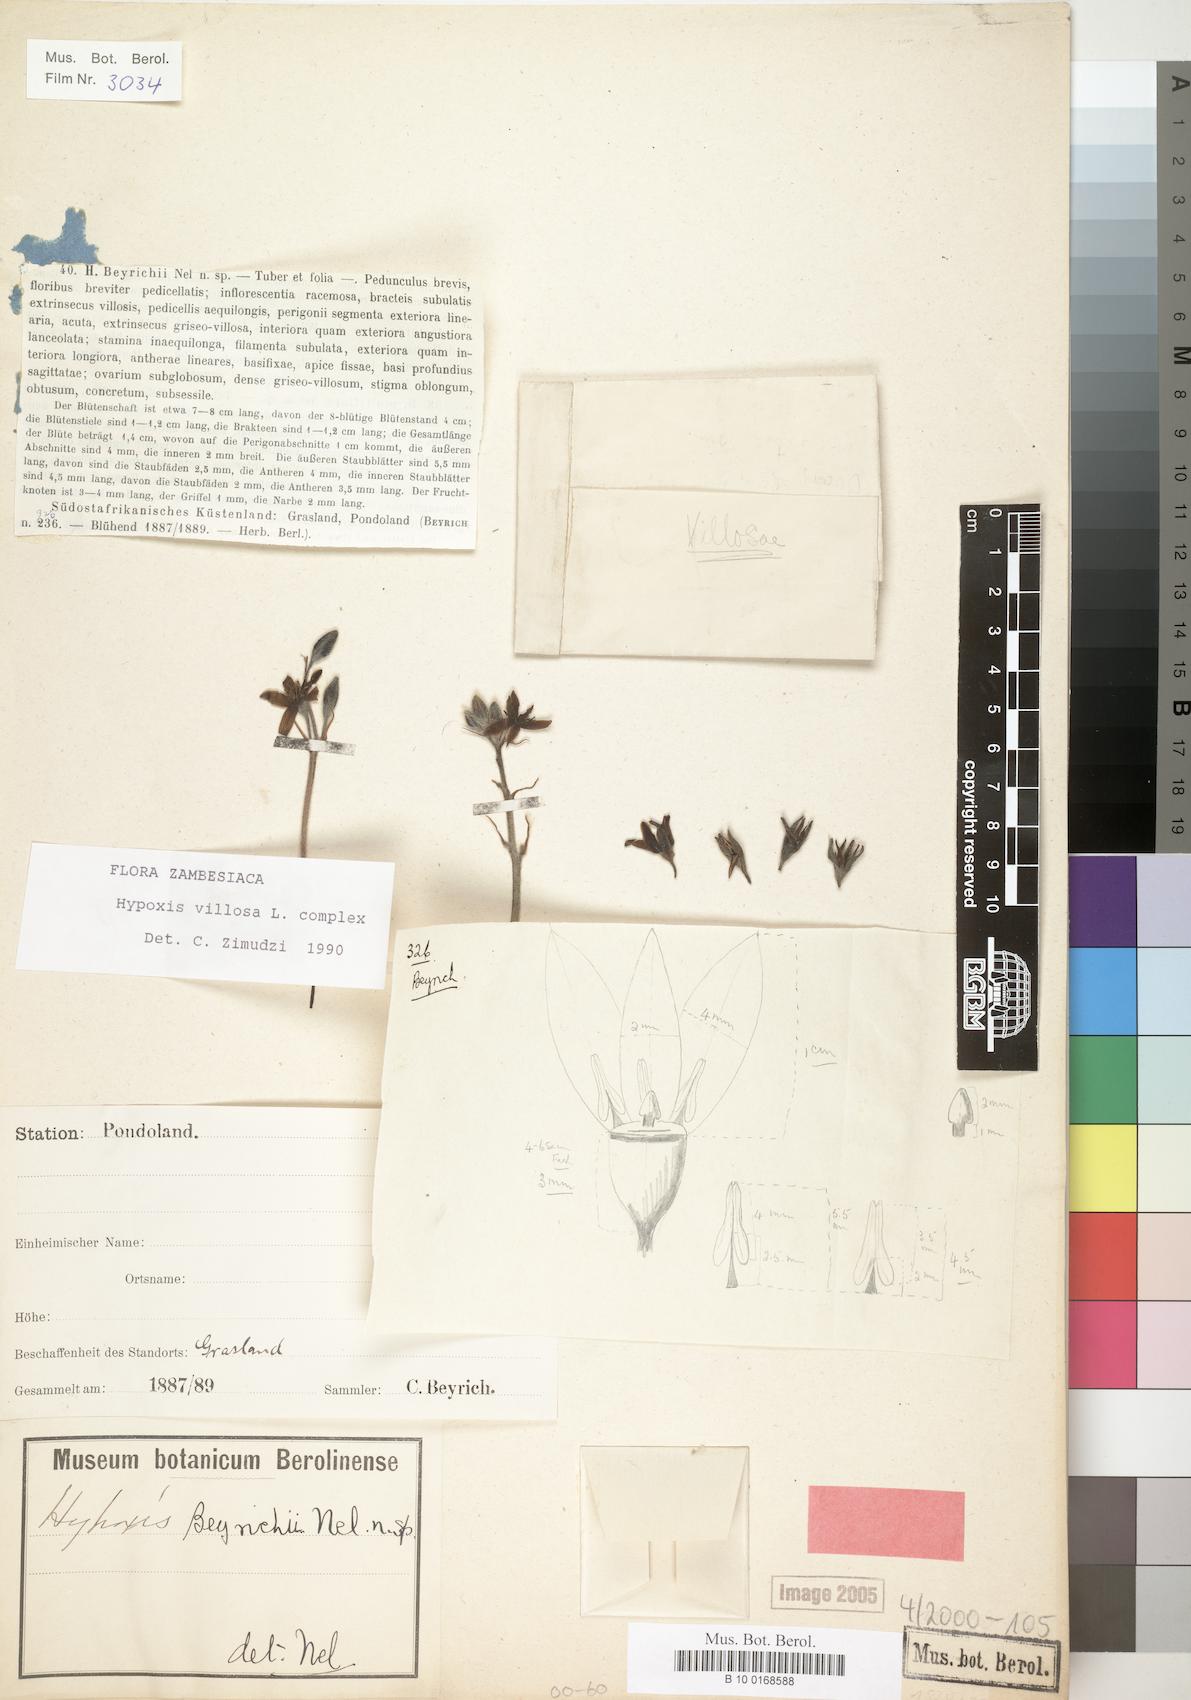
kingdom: Plantae
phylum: Tracheophyta
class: Liliopsida
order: Asparagales
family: Hypoxidaceae
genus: Hypoxis
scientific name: Hypoxis villosa
